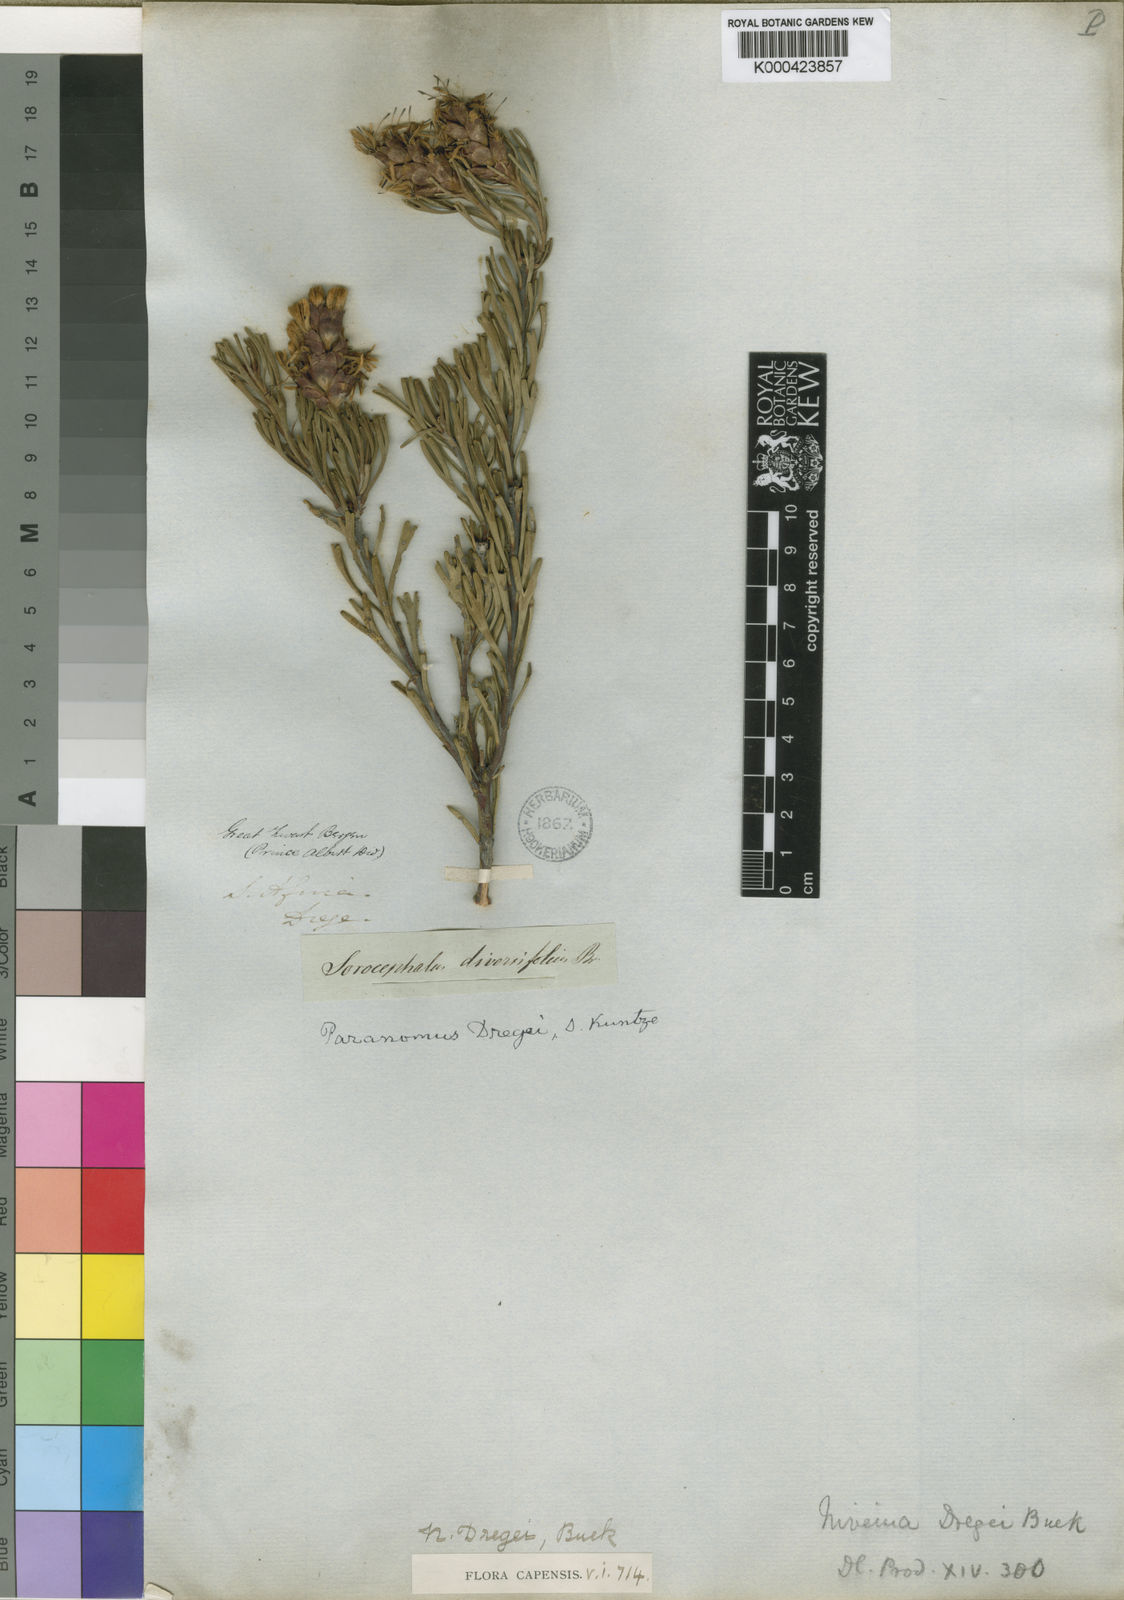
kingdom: Plantae
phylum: Tracheophyta
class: Magnoliopsida
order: Proteales
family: Proteaceae
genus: Paranomus
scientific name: Paranomus dregei
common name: Scented sceptre
